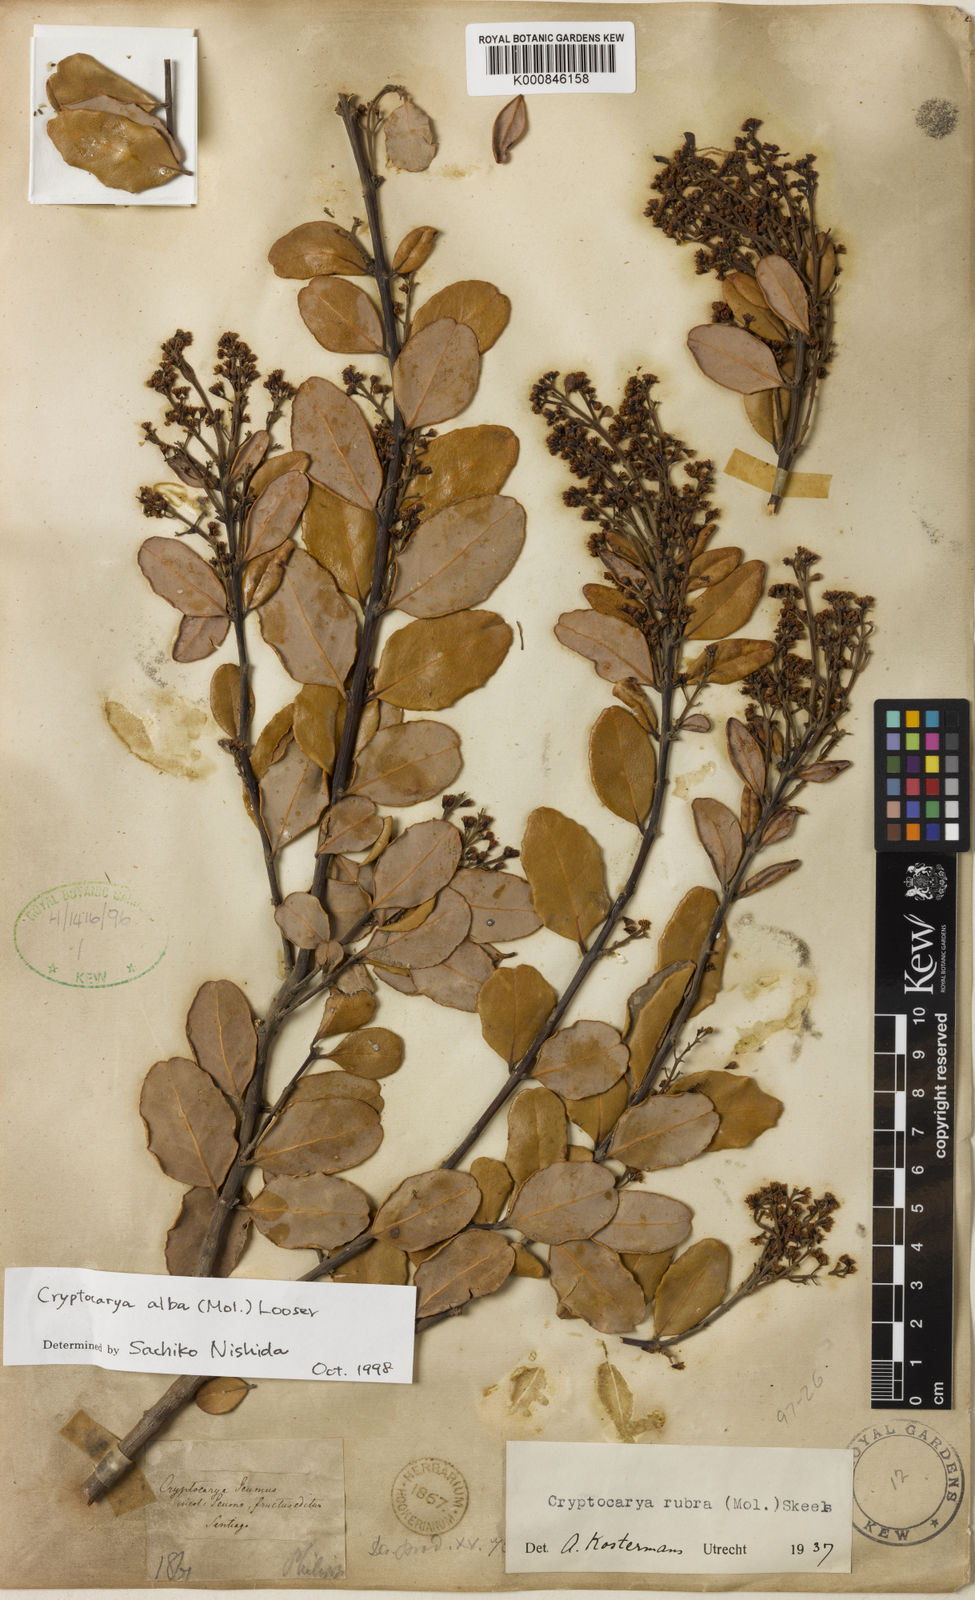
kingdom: Plantae
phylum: Tracheophyta
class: Magnoliopsida
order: Laurales
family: Lauraceae
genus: Cryptocarya
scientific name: Cryptocarya alba
